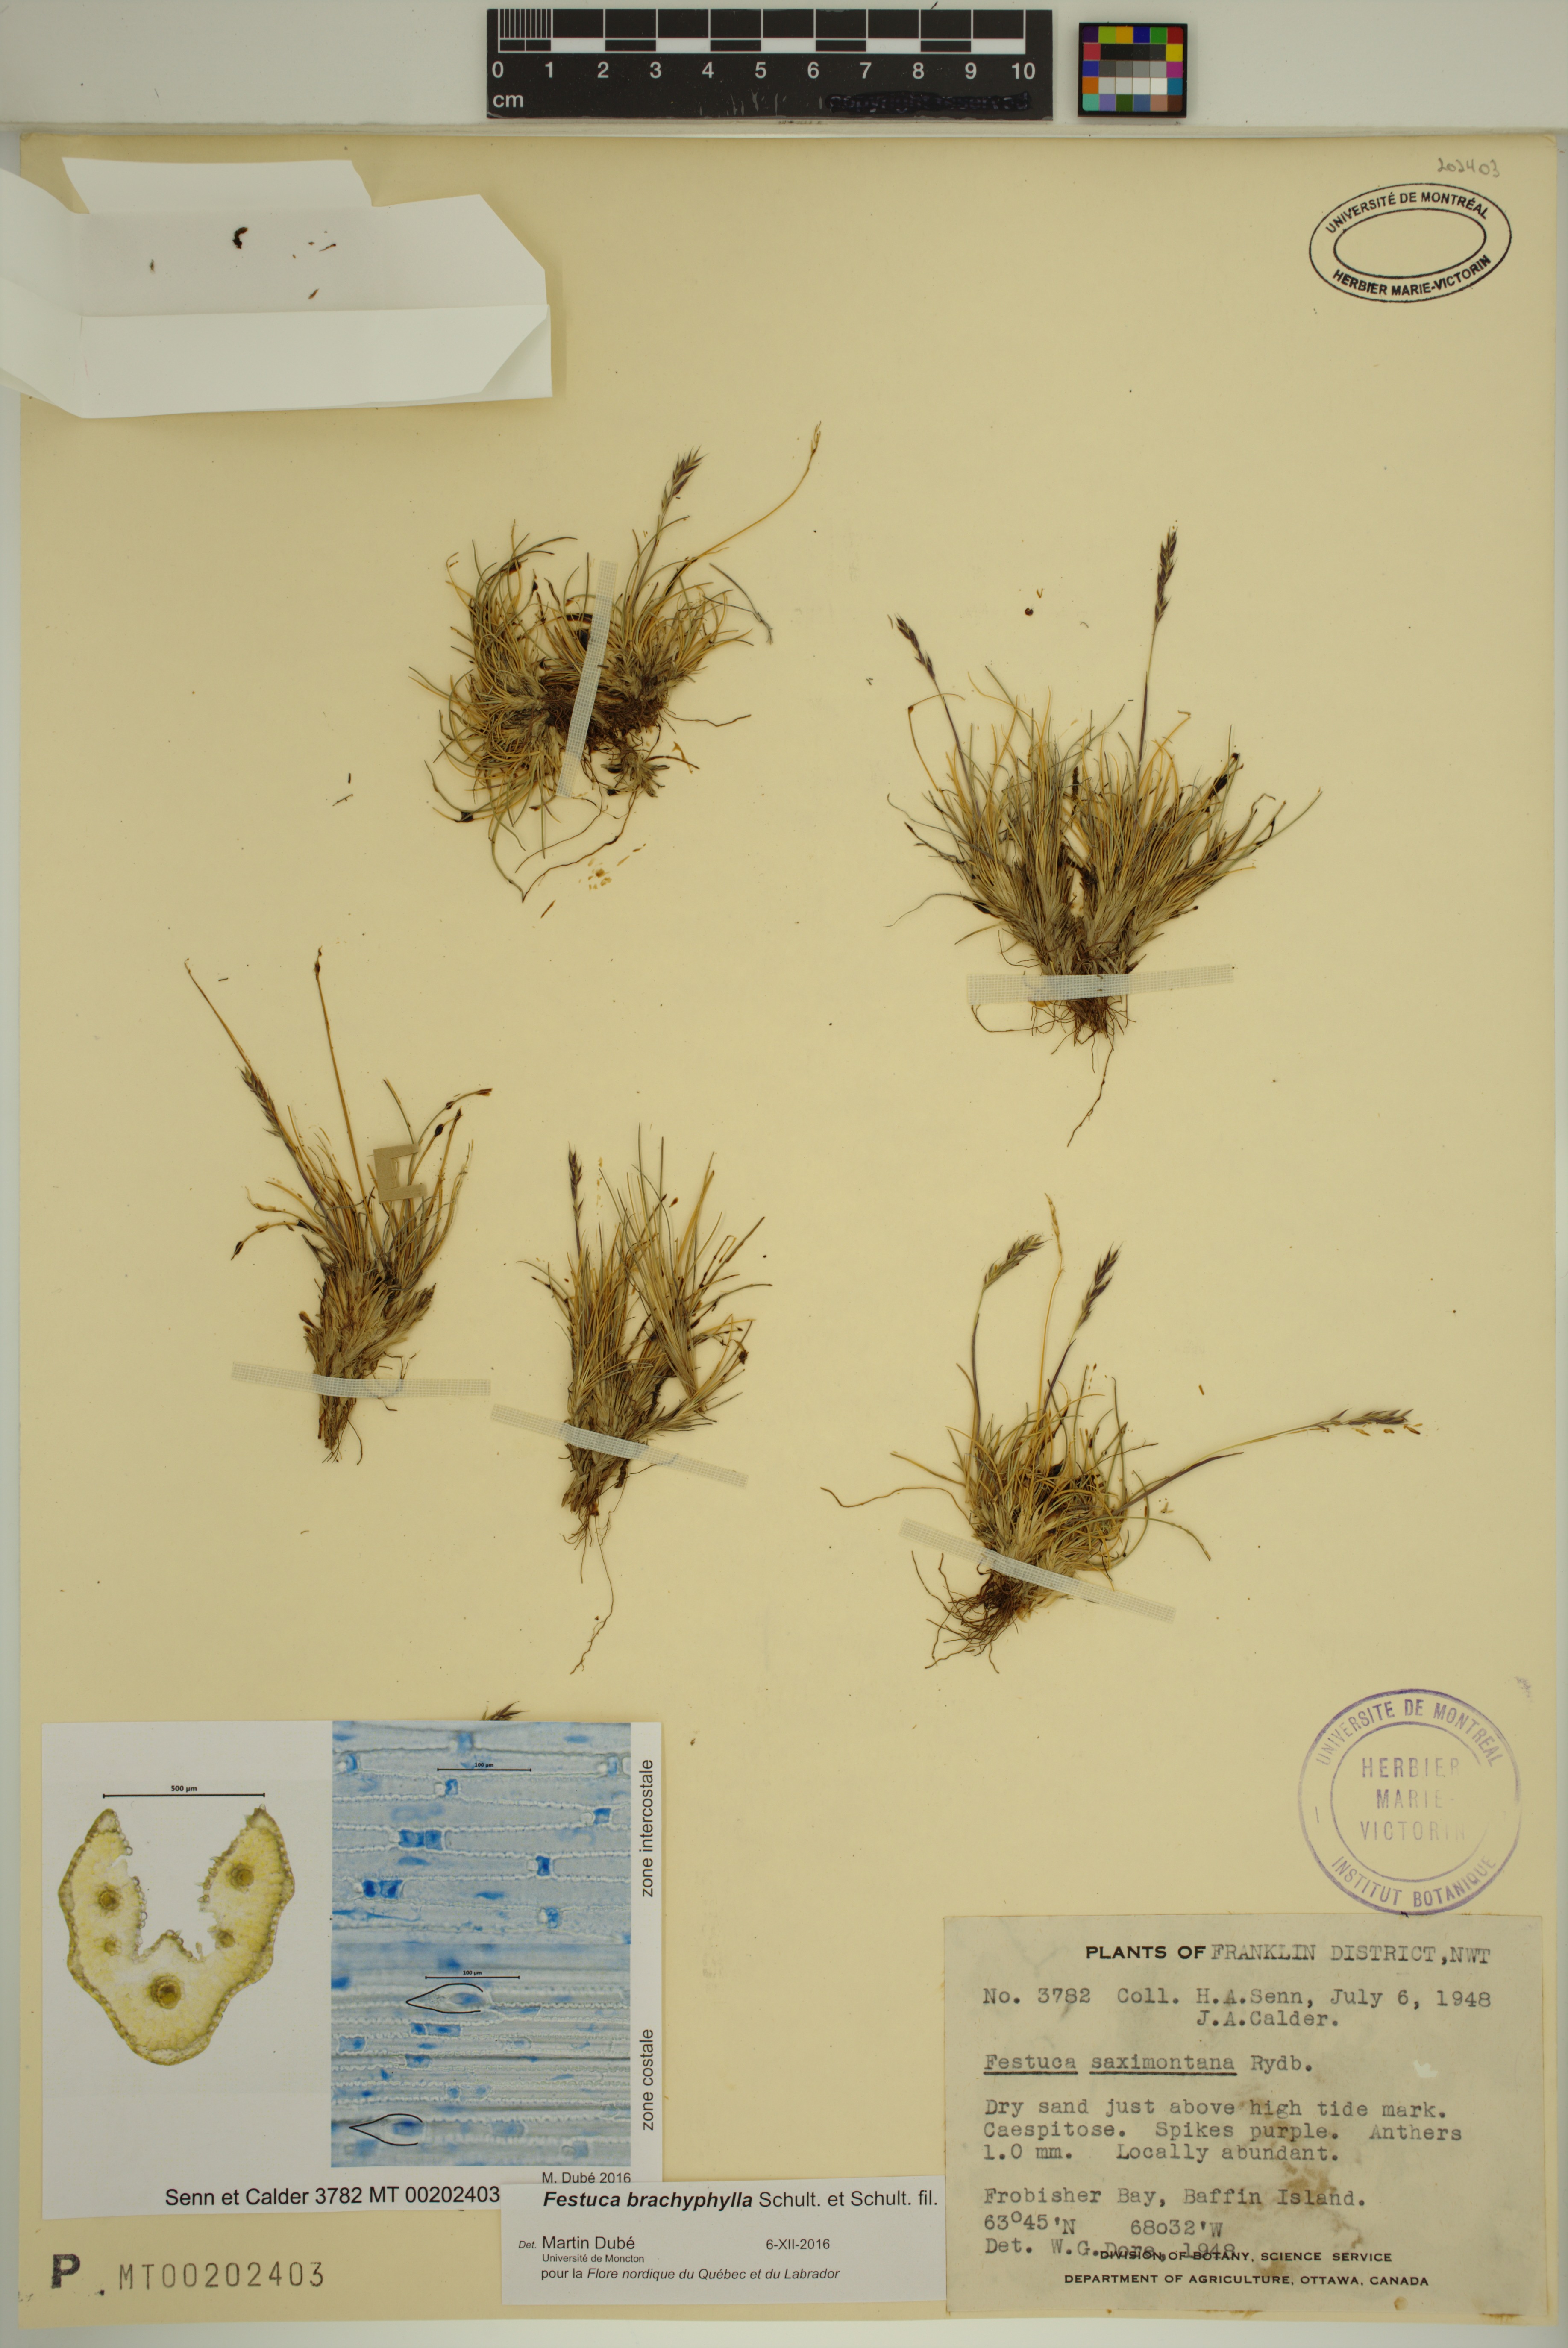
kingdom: Plantae
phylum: Tracheophyta
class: Liliopsida
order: Poales
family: Poaceae
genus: Festuca
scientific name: Festuca brachyphylla
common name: Alpine fescue
